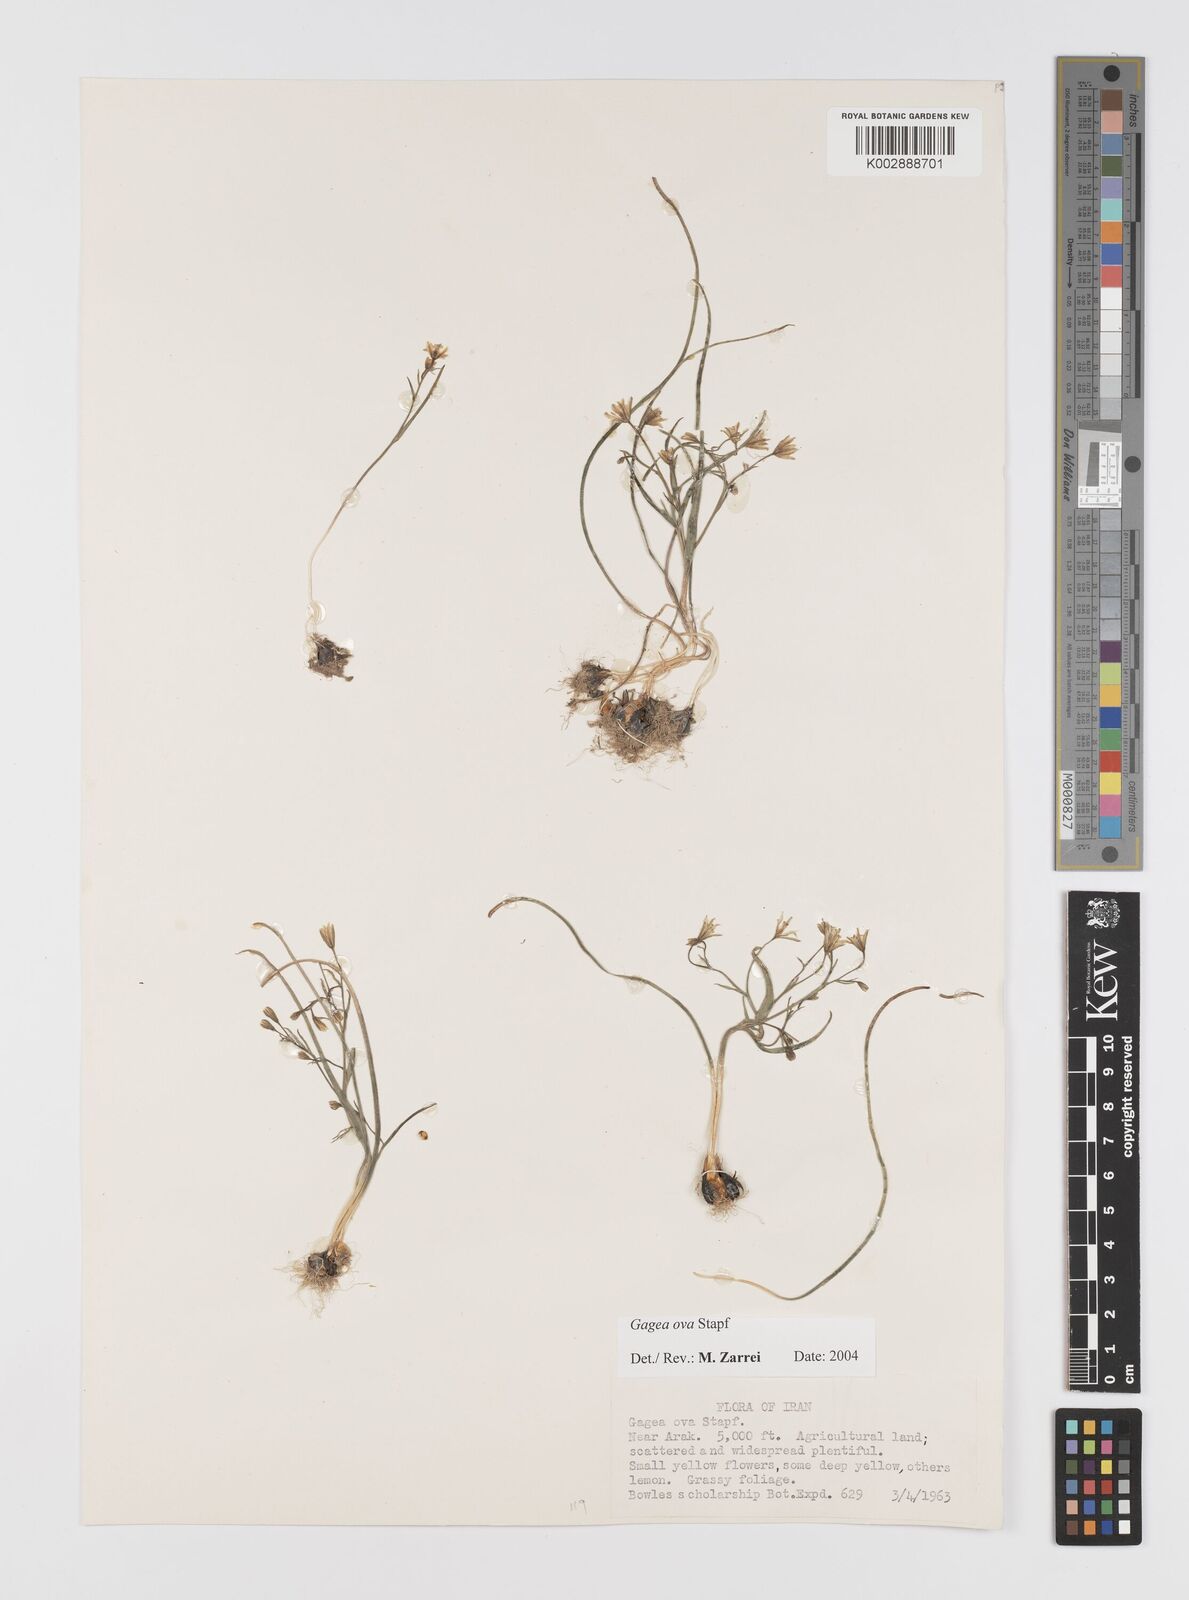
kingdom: Plantae
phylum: Tracheophyta
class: Liliopsida
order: Liliales
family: Liliaceae
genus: Gagea
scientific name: Gagea kunawurensis
